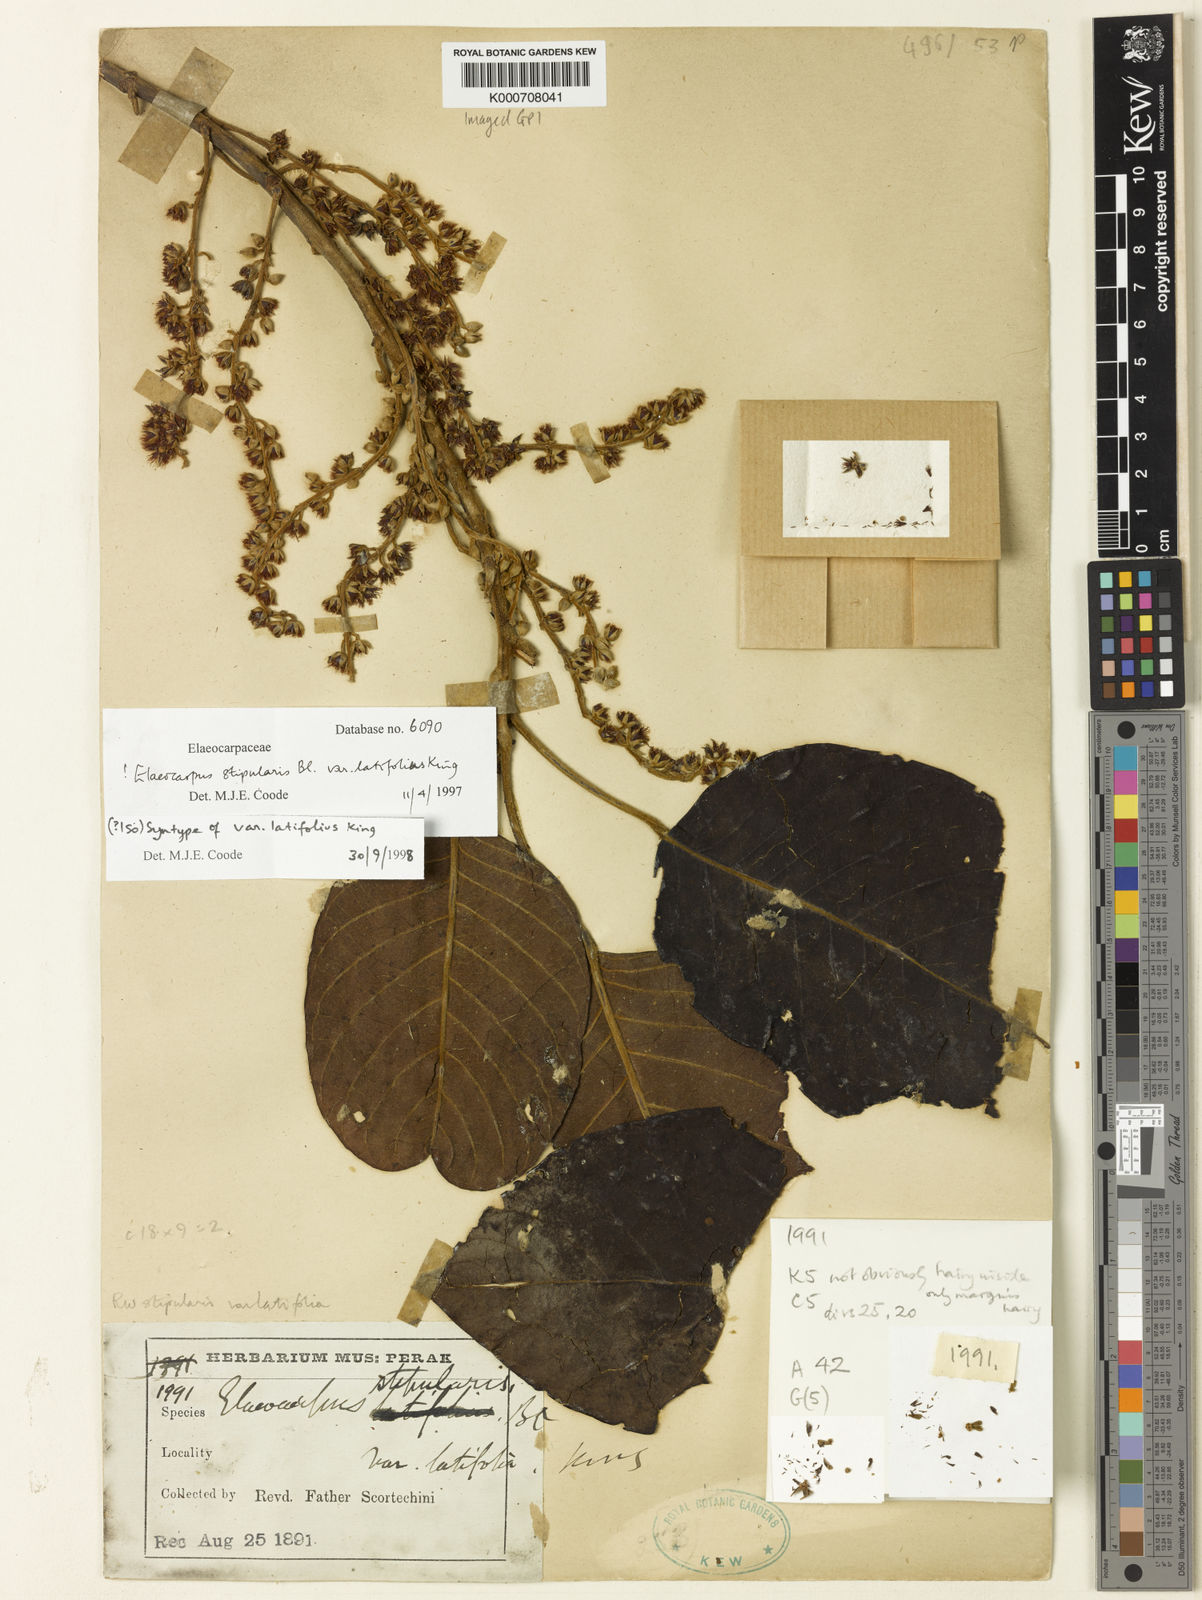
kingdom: Plantae
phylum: Tracheophyta
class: Magnoliopsida
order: Oxalidales
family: Elaeocarpaceae
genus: Elaeocarpus
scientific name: Elaeocarpus stipularis
